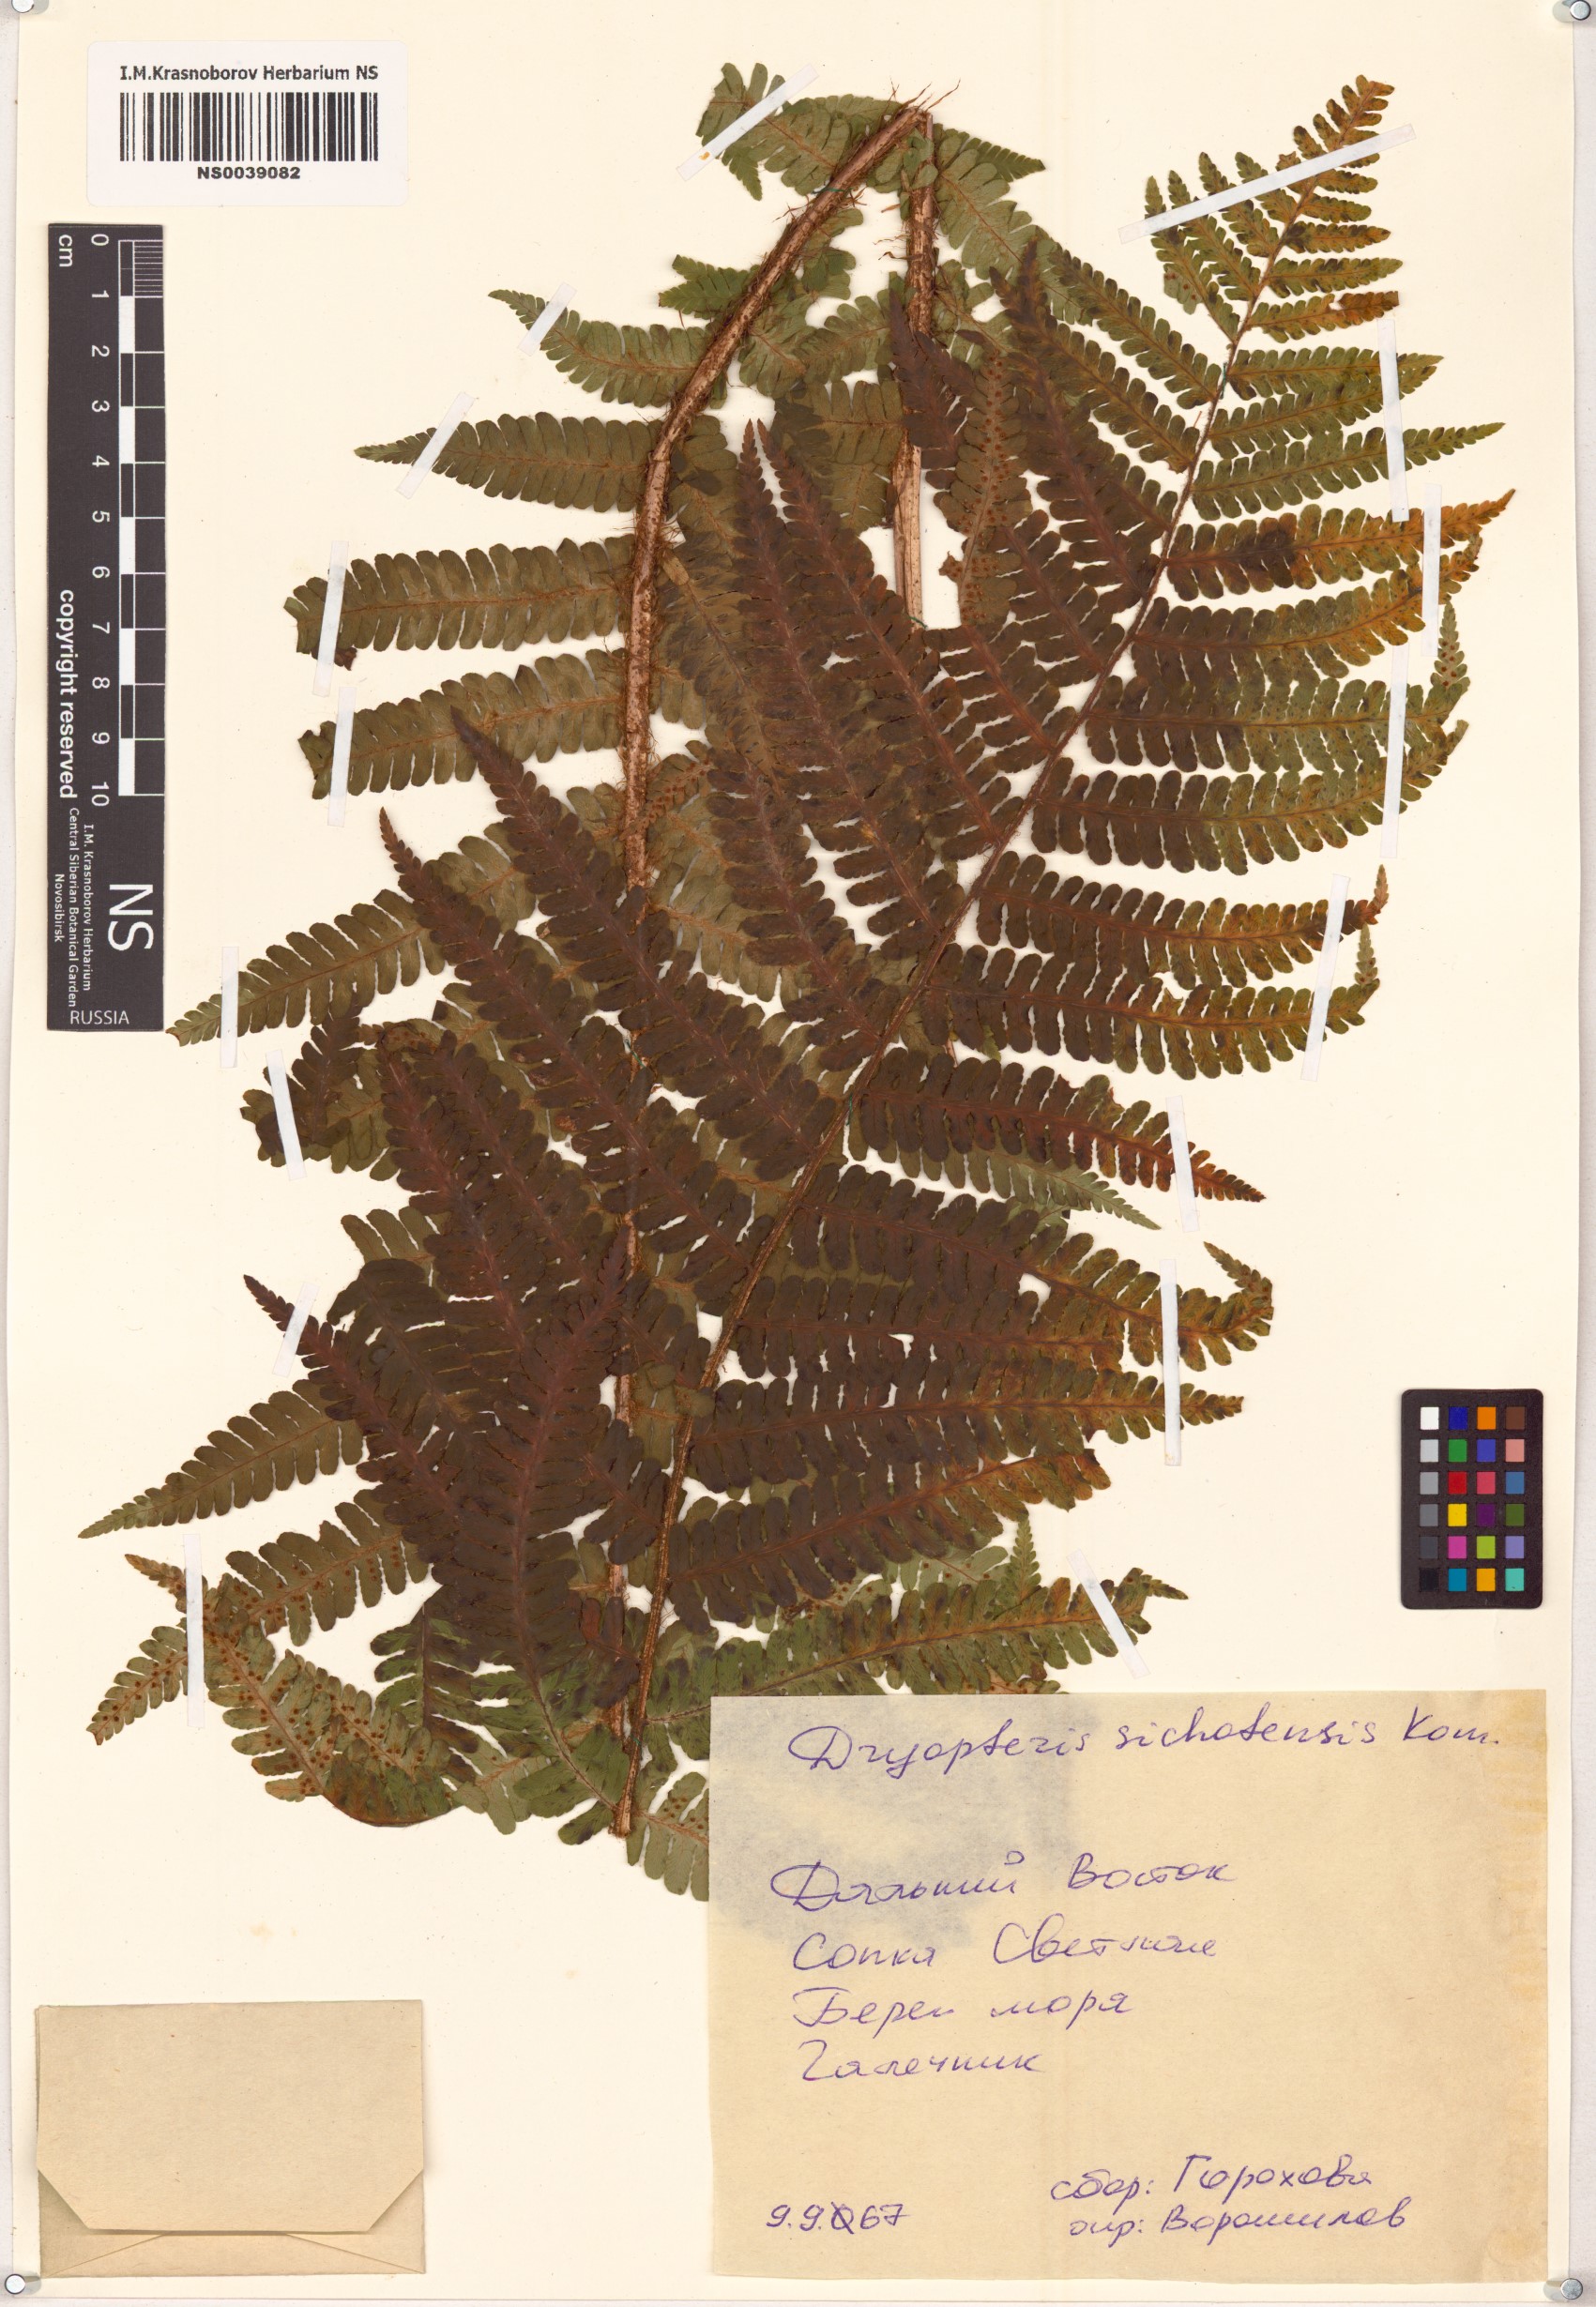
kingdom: Plantae
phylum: Tracheophyta
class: Polypodiopsida
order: Polypodiales
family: Dryopteridaceae
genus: Dryopteris
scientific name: Dryopteris sichotensis
